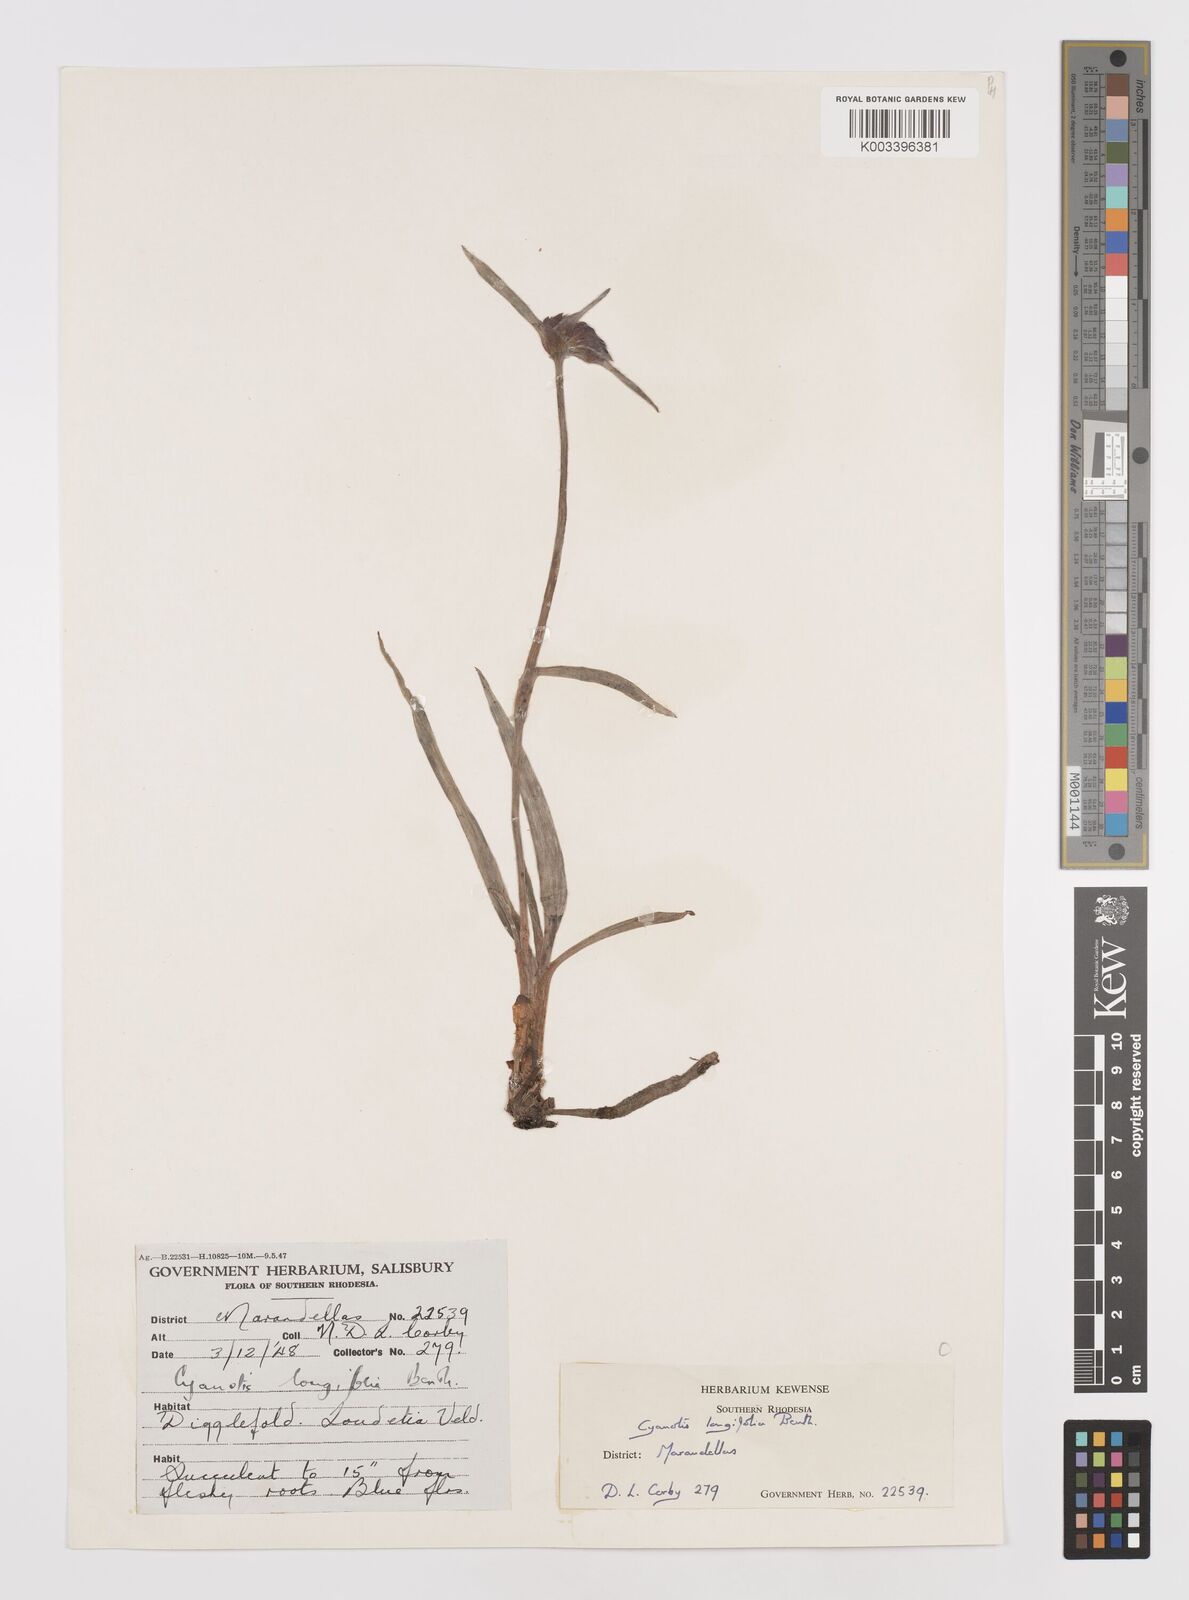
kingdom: Plantae
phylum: Tracheophyta
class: Liliopsida
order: Commelinales
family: Commelinaceae
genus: Cyanotis
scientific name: Cyanotis longifolia
